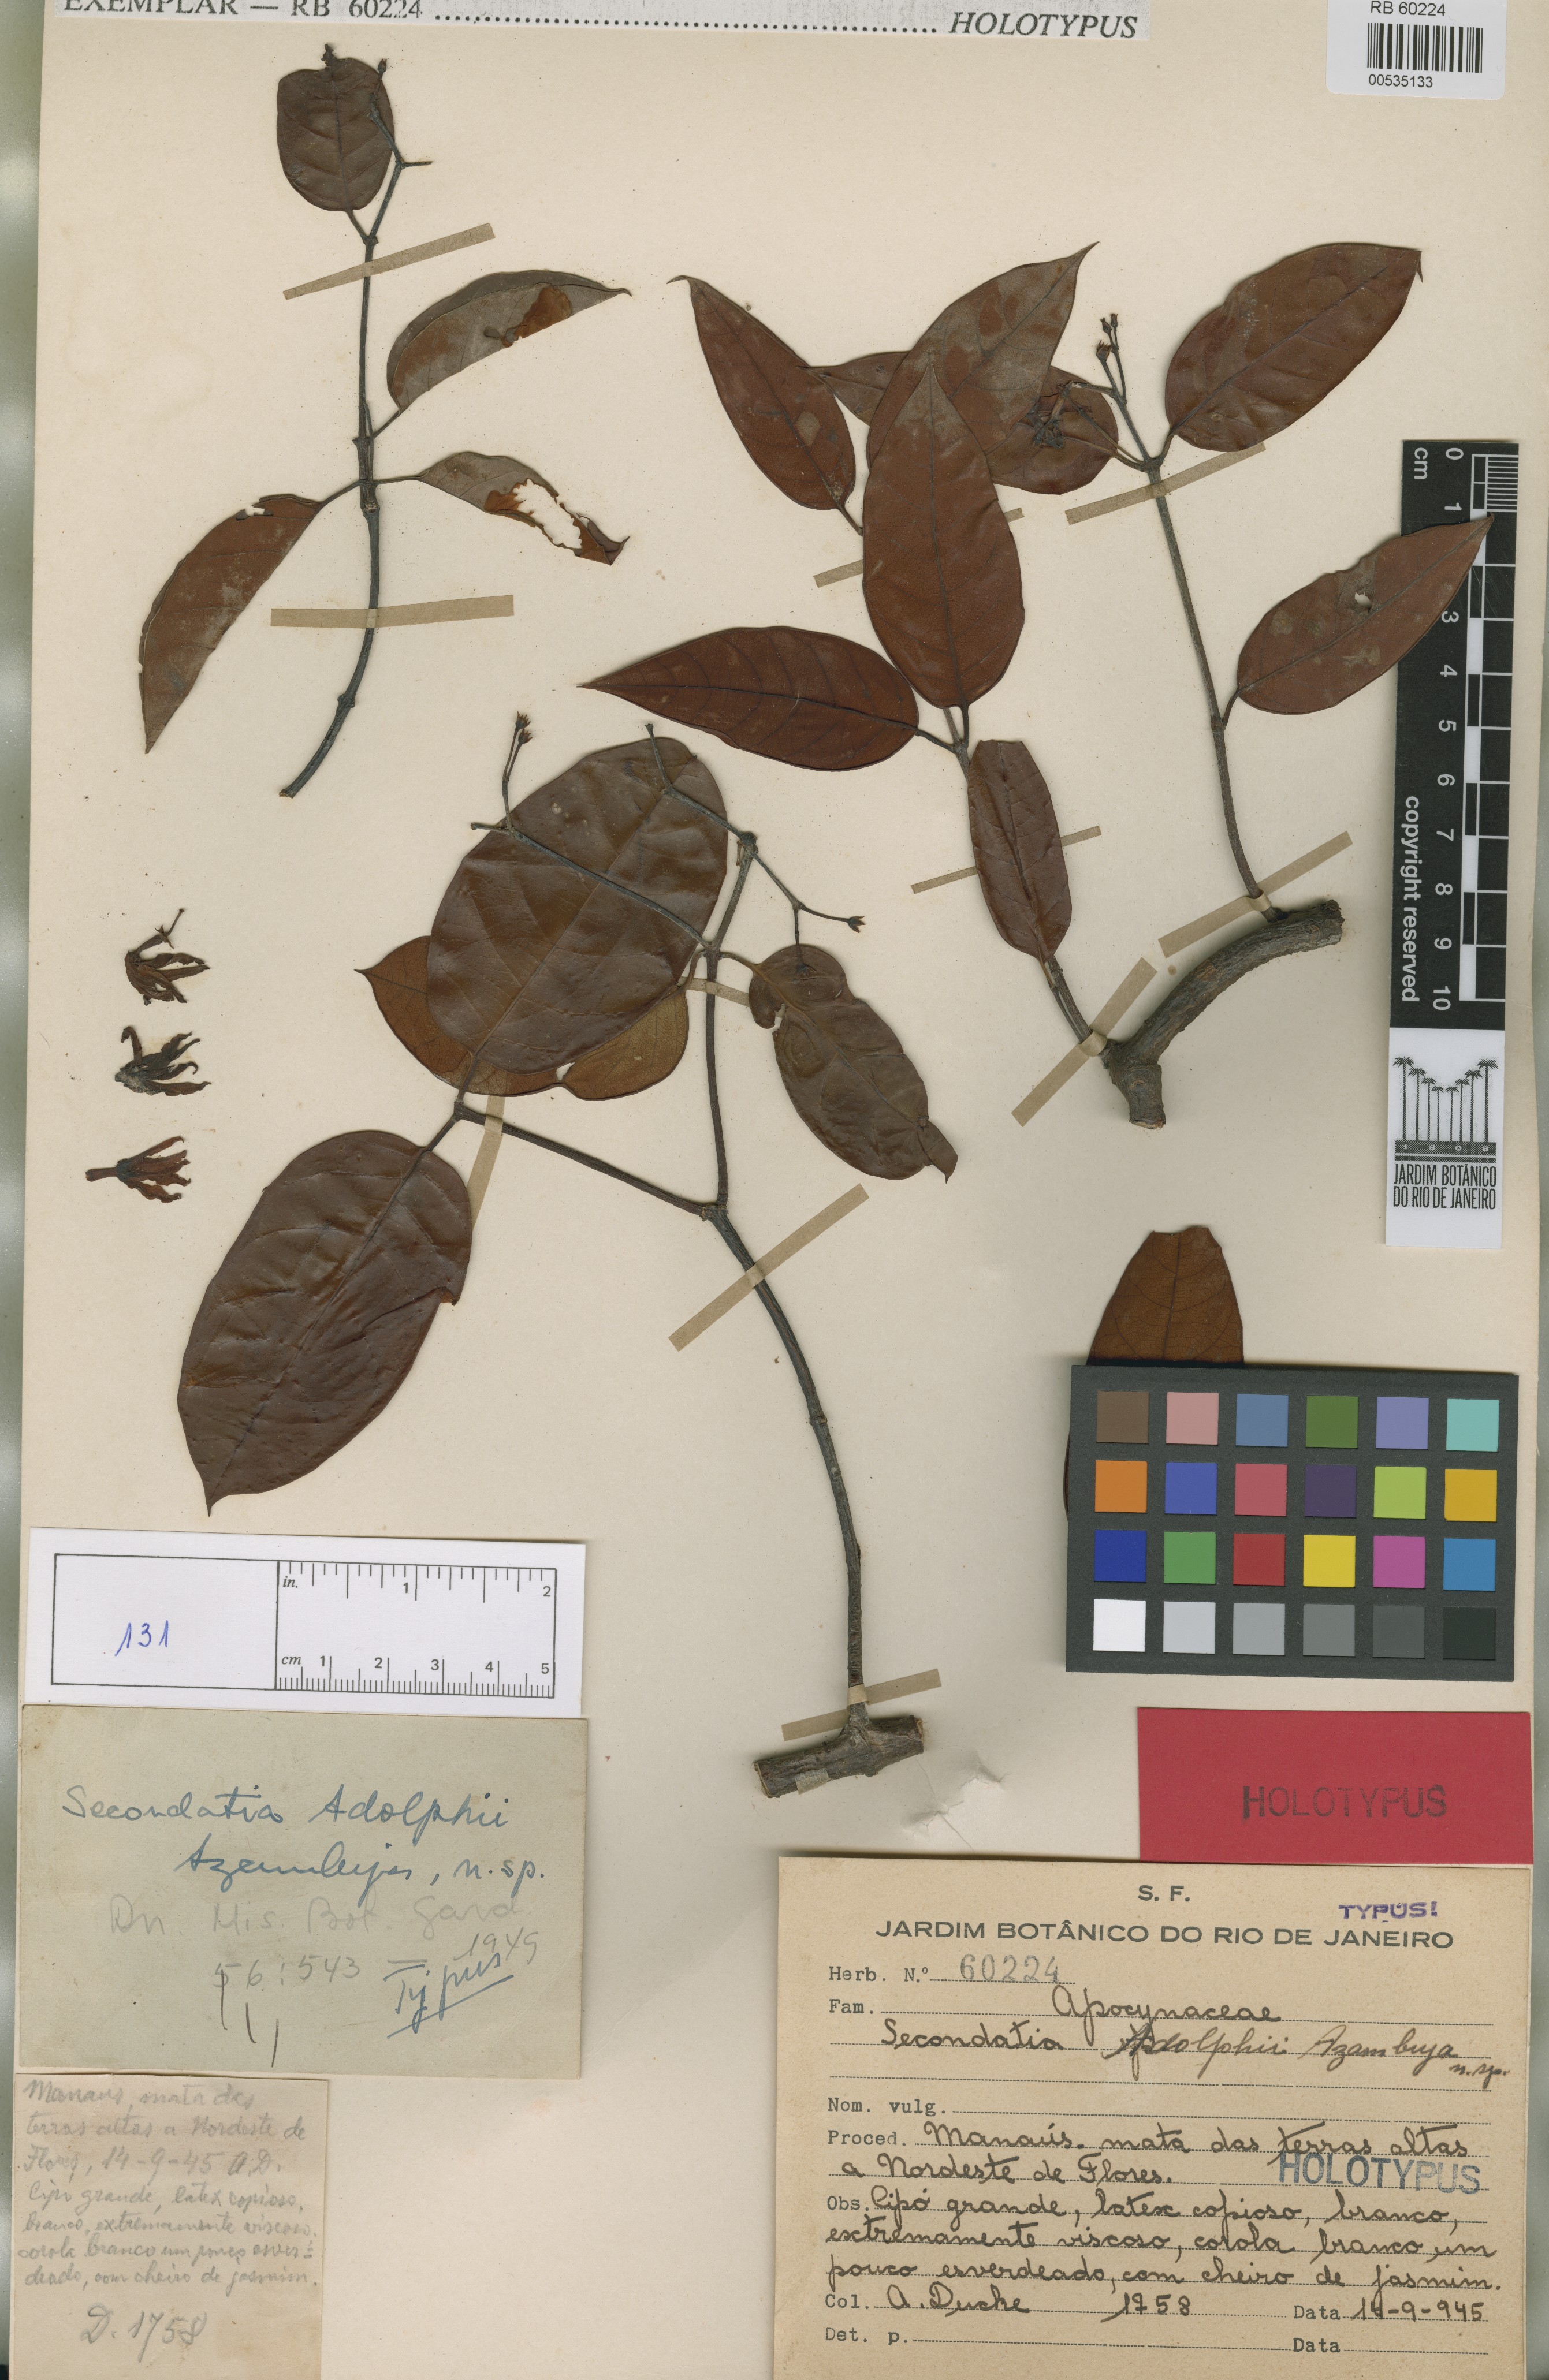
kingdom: Plantae
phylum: Tracheophyta
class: Magnoliopsida
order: Gentianales
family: Apocynaceae
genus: Secondatia
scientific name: Secondatia duckei
